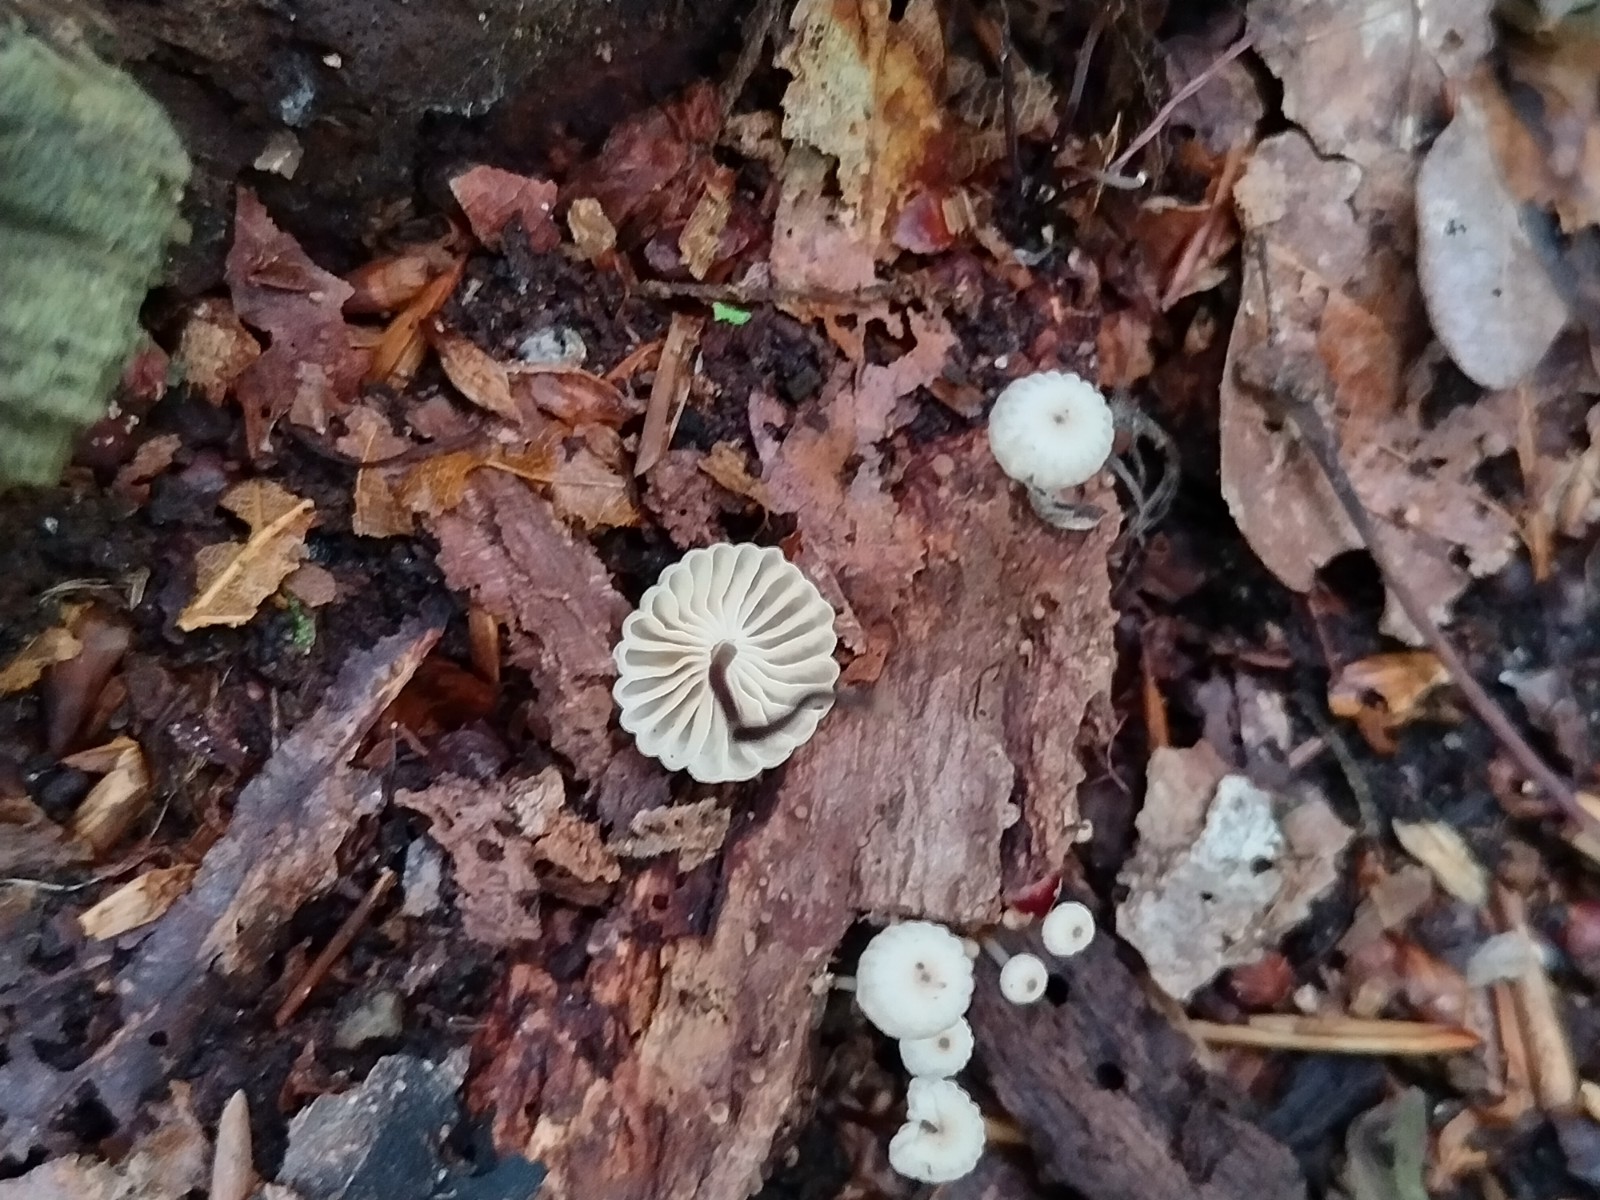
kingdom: Fungi
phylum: Basidiomycota
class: Agaricomycetes
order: Agaricales
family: Marasmiaceae
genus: Marasmius
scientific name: Marasmius rotula
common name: hjul-bruskhat
